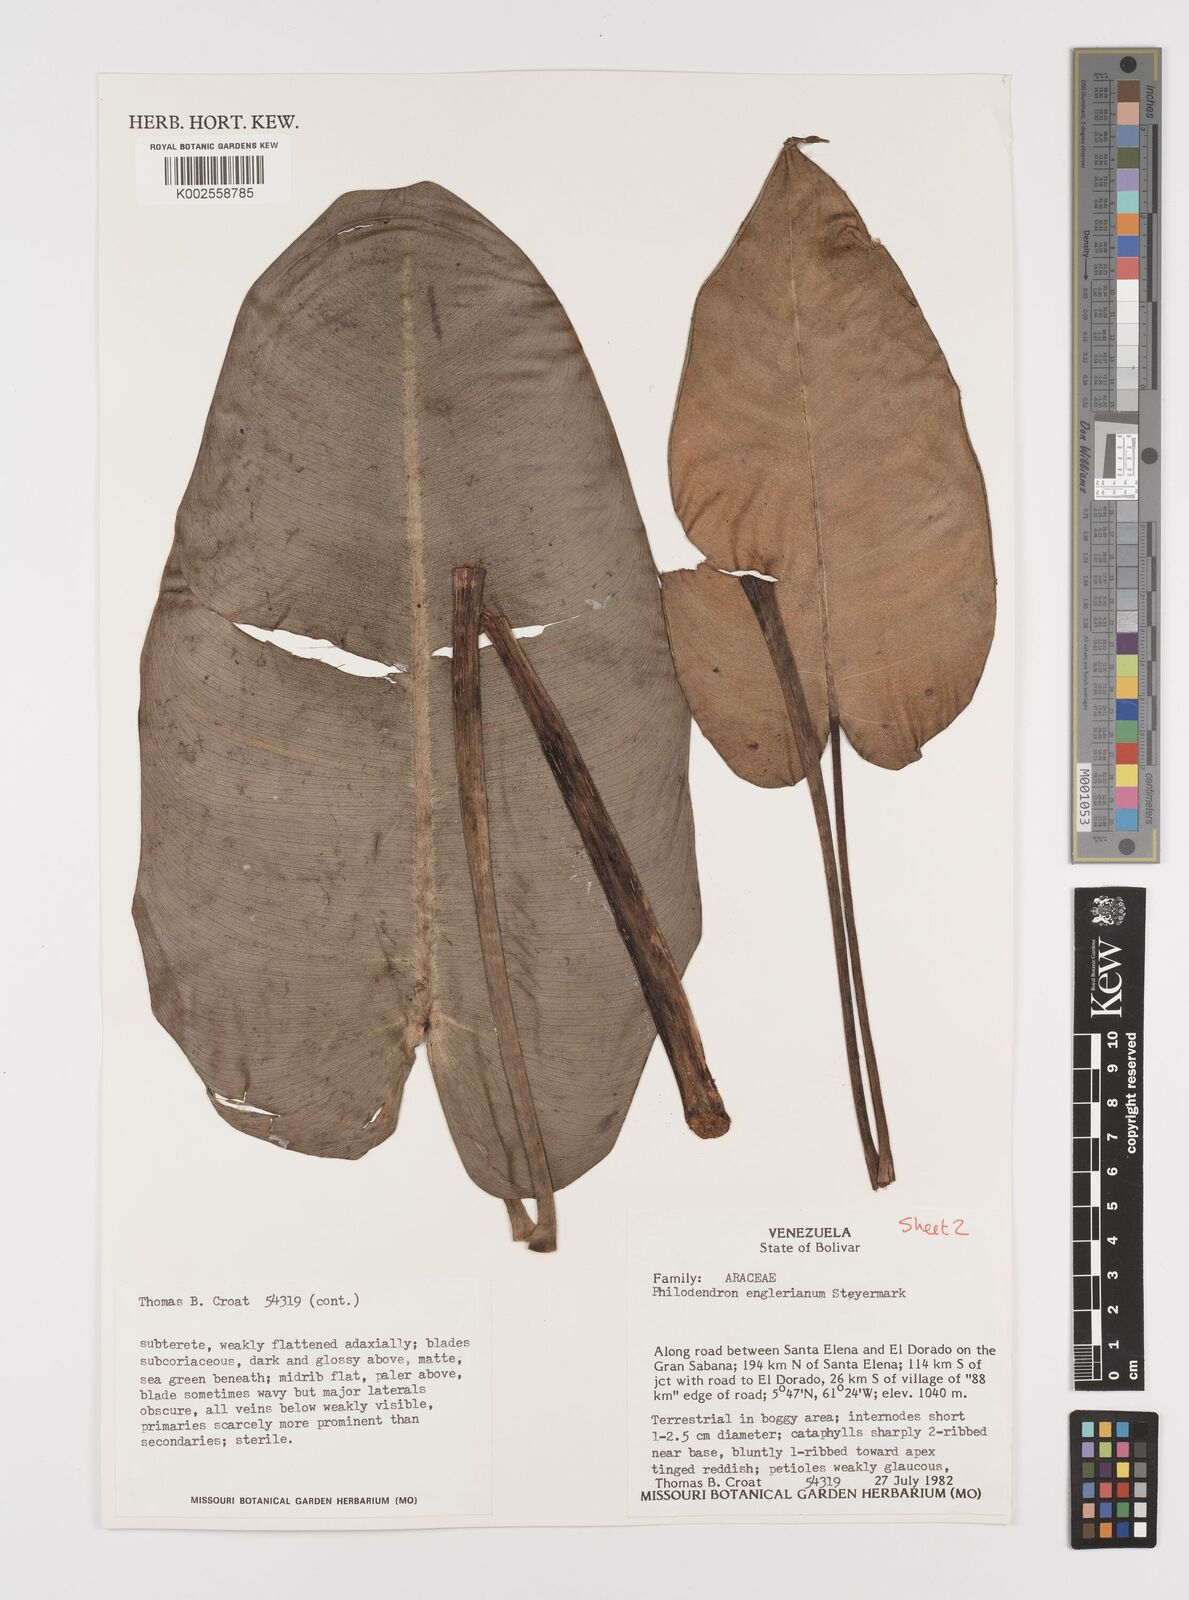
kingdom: Plantae
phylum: Tracheophyta
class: Liliopsida
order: Alismatales
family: Araceae
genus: Philodendron
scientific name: Philodendron englerianum
